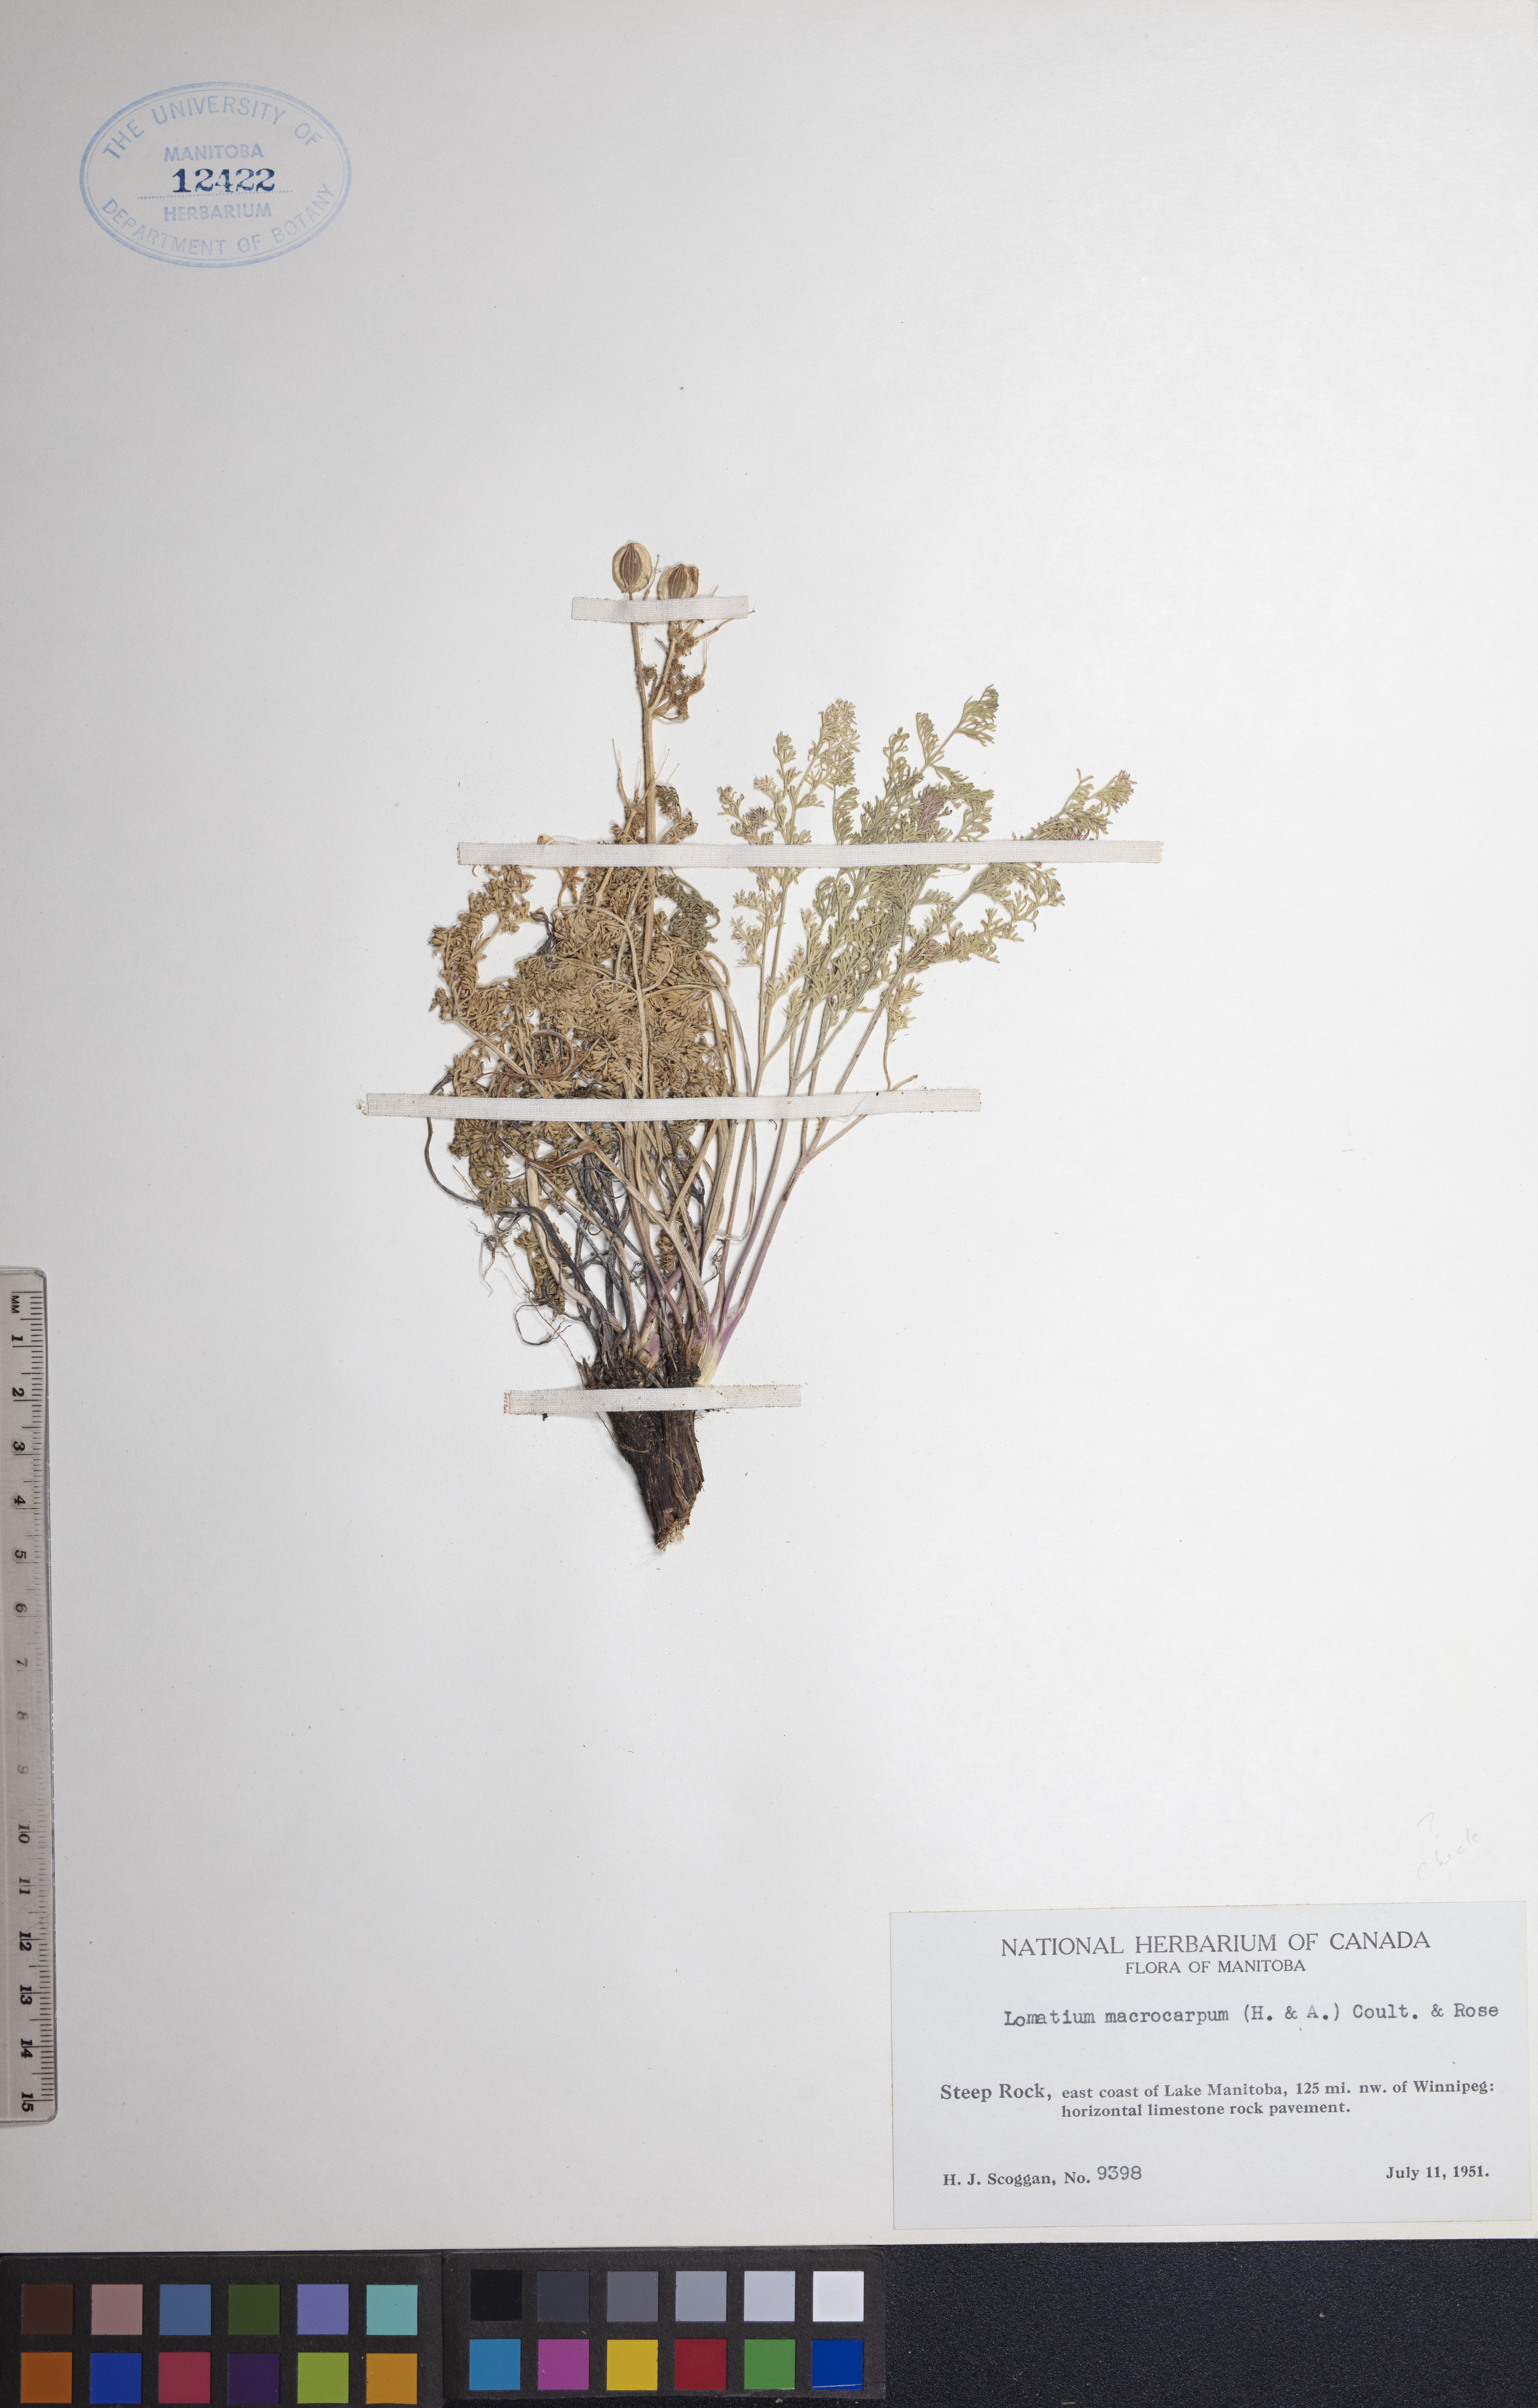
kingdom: Plantae
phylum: Tracheophyta
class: Magnoliopsida
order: Apiales
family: Apiaceae
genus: Lomatium
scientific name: Lomatium macrocarpum
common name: Big-seed biscuitroot
